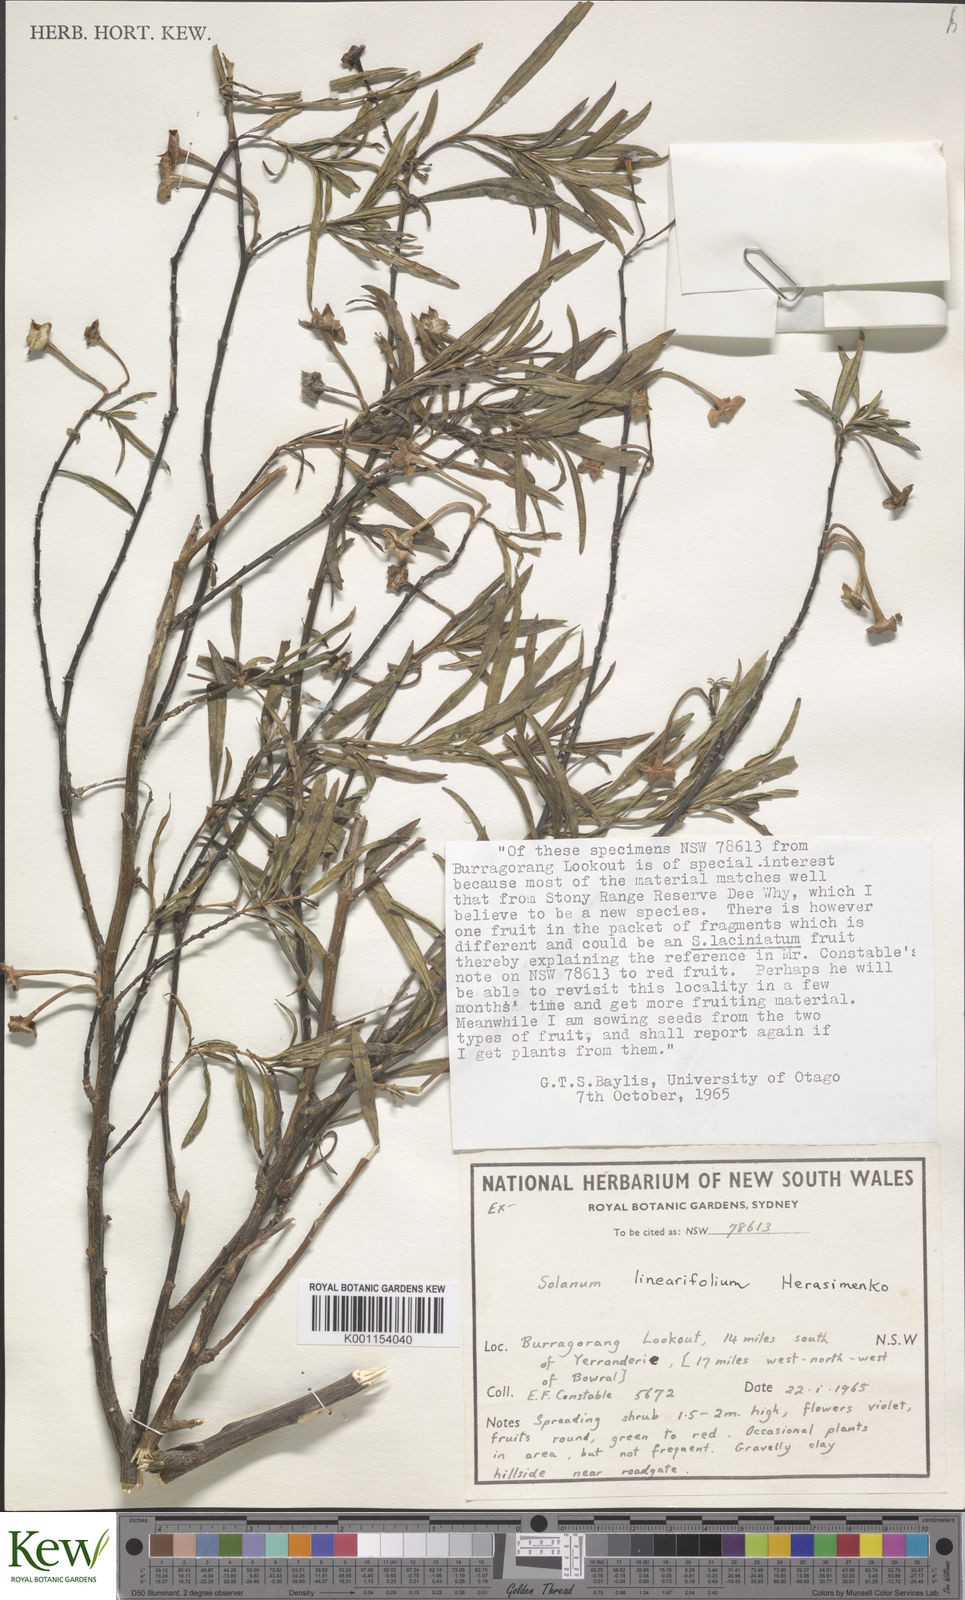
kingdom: Plantae
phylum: Tracheophyta
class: Magnoliopsida
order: Solanales
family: Solanaceae
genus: Solanum
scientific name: Solanum linearifolium
